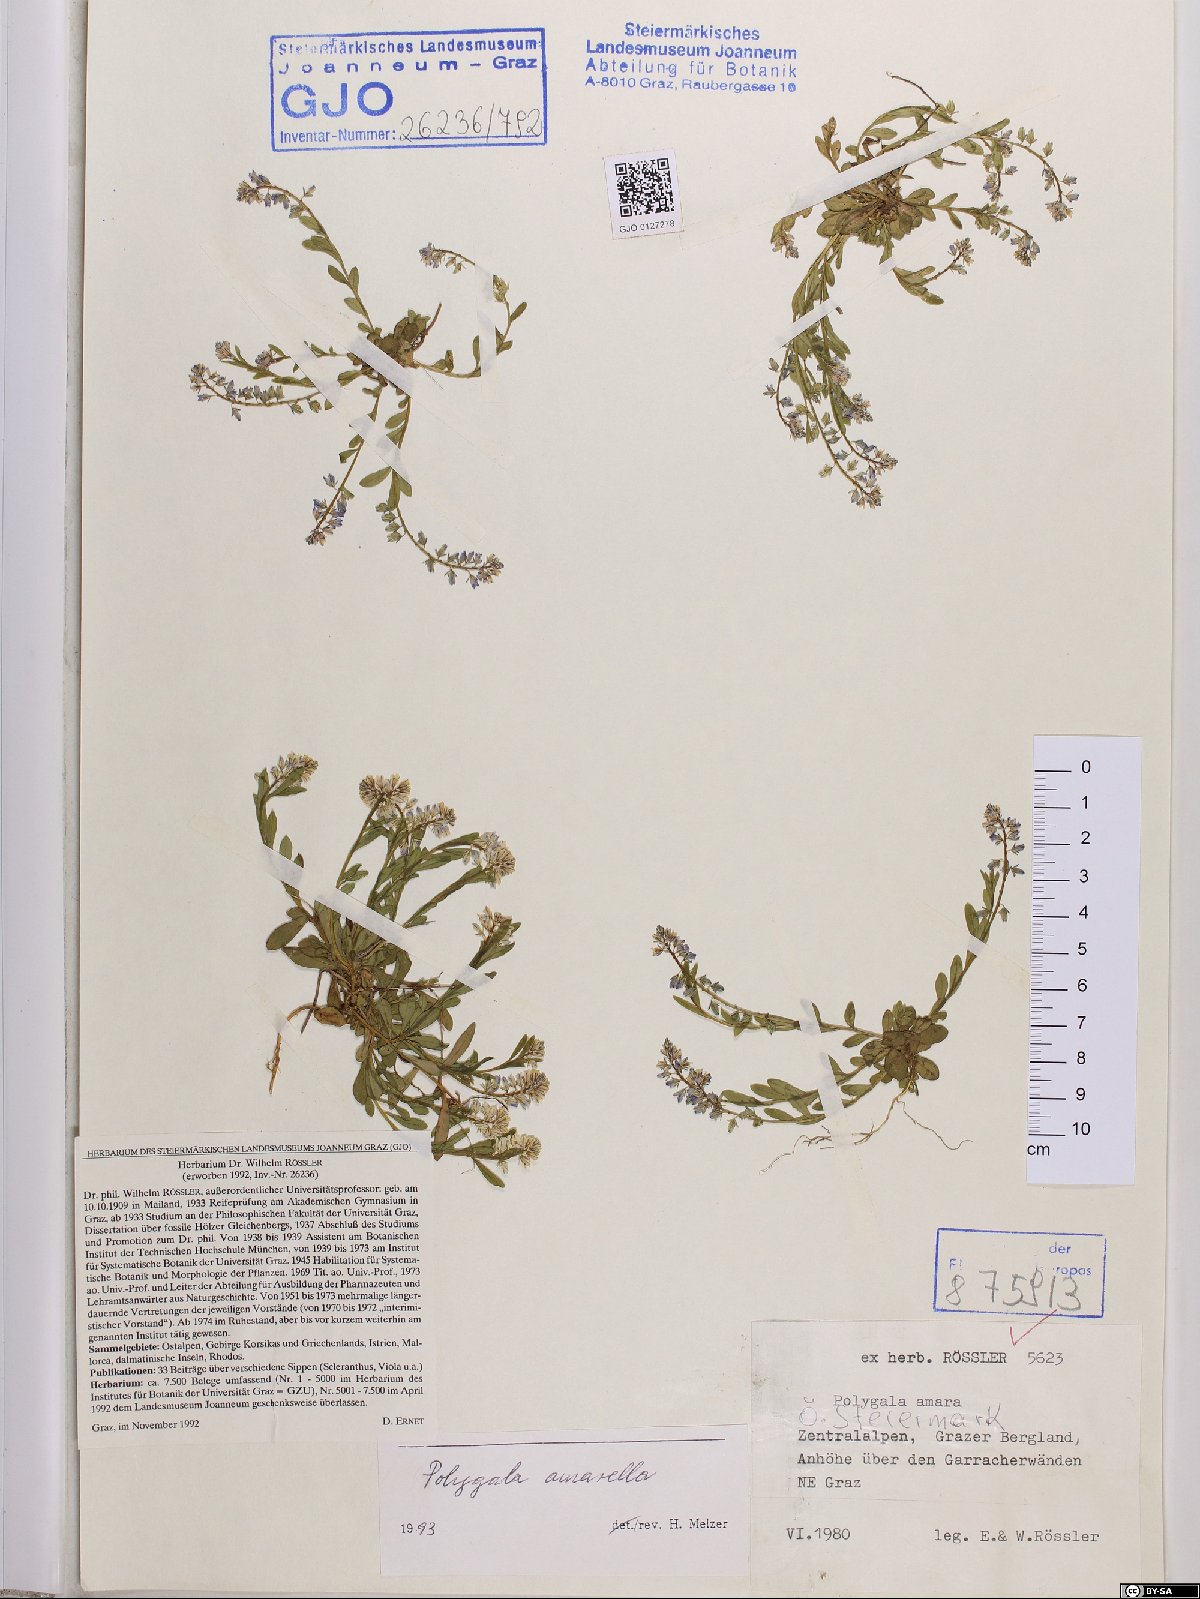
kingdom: Plantae
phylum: Tracheophyta
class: Magnoliopsida
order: Fabales
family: Polygalaceae
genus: Polygala
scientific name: Polygala amarella
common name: Dwarf milkwort
